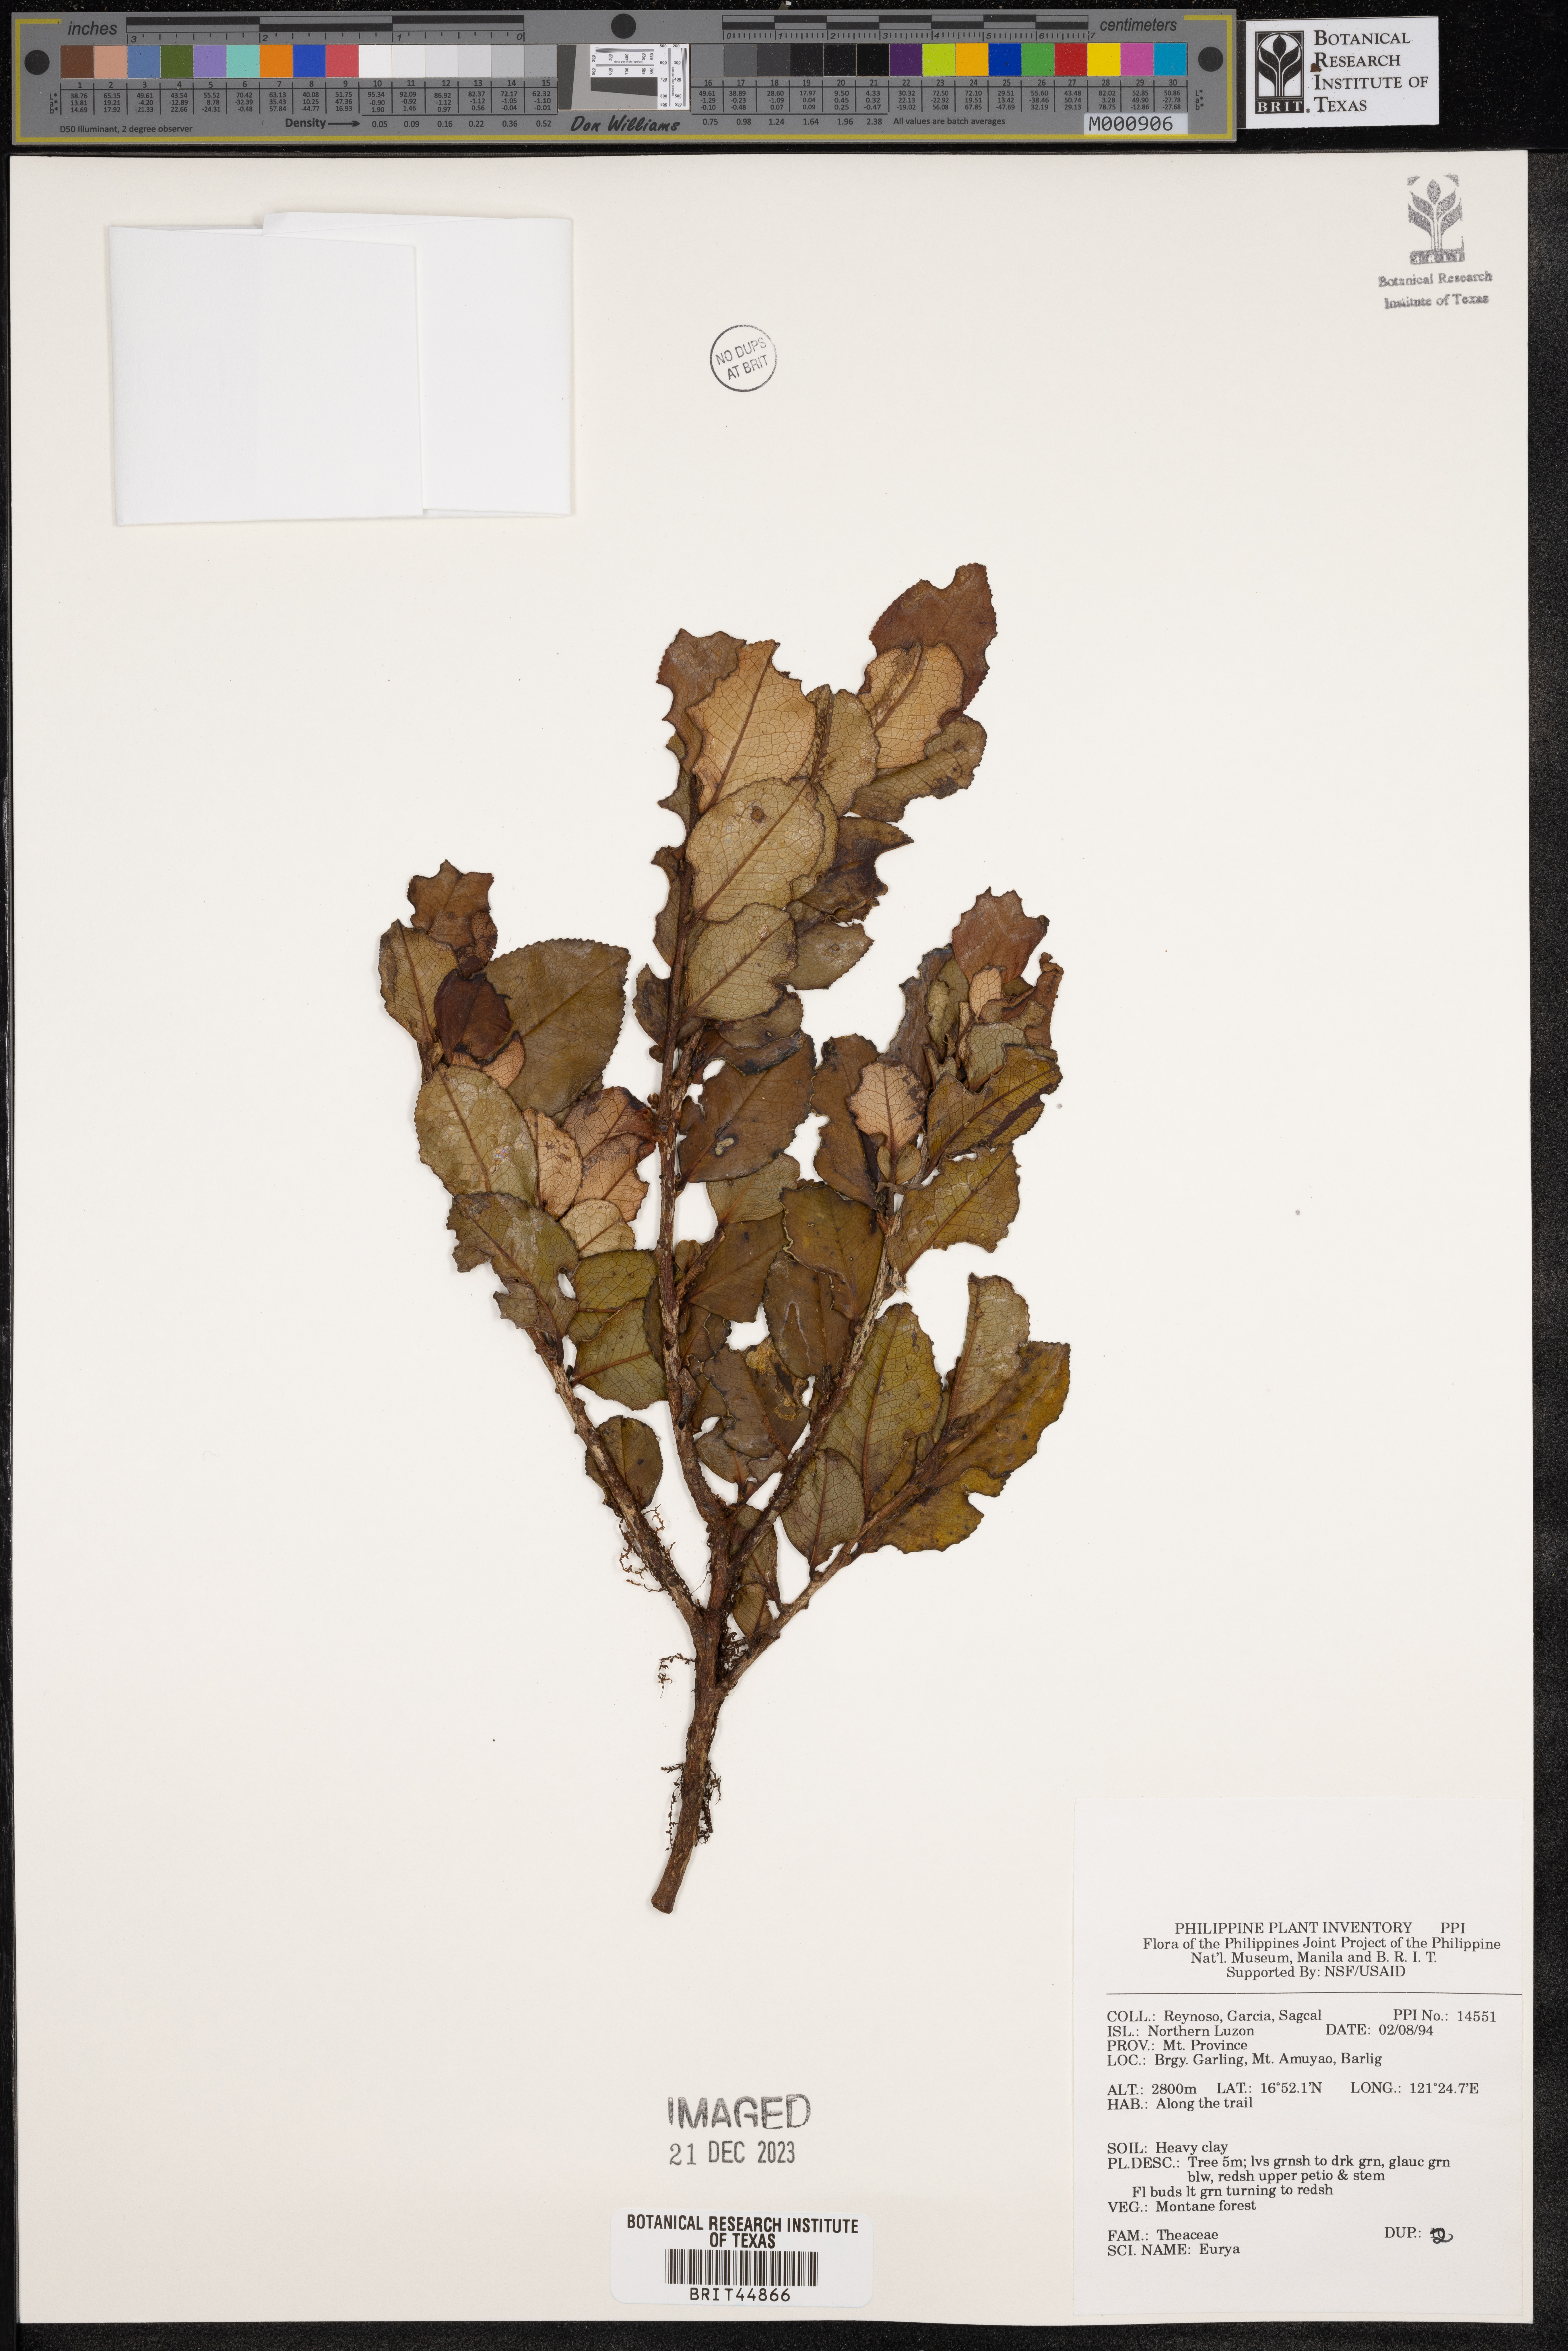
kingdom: Plantae
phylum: Tracheophyta
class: Magnoliopsida
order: Ericales
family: Pentaphylacaceae
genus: Eurya
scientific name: Eurya
